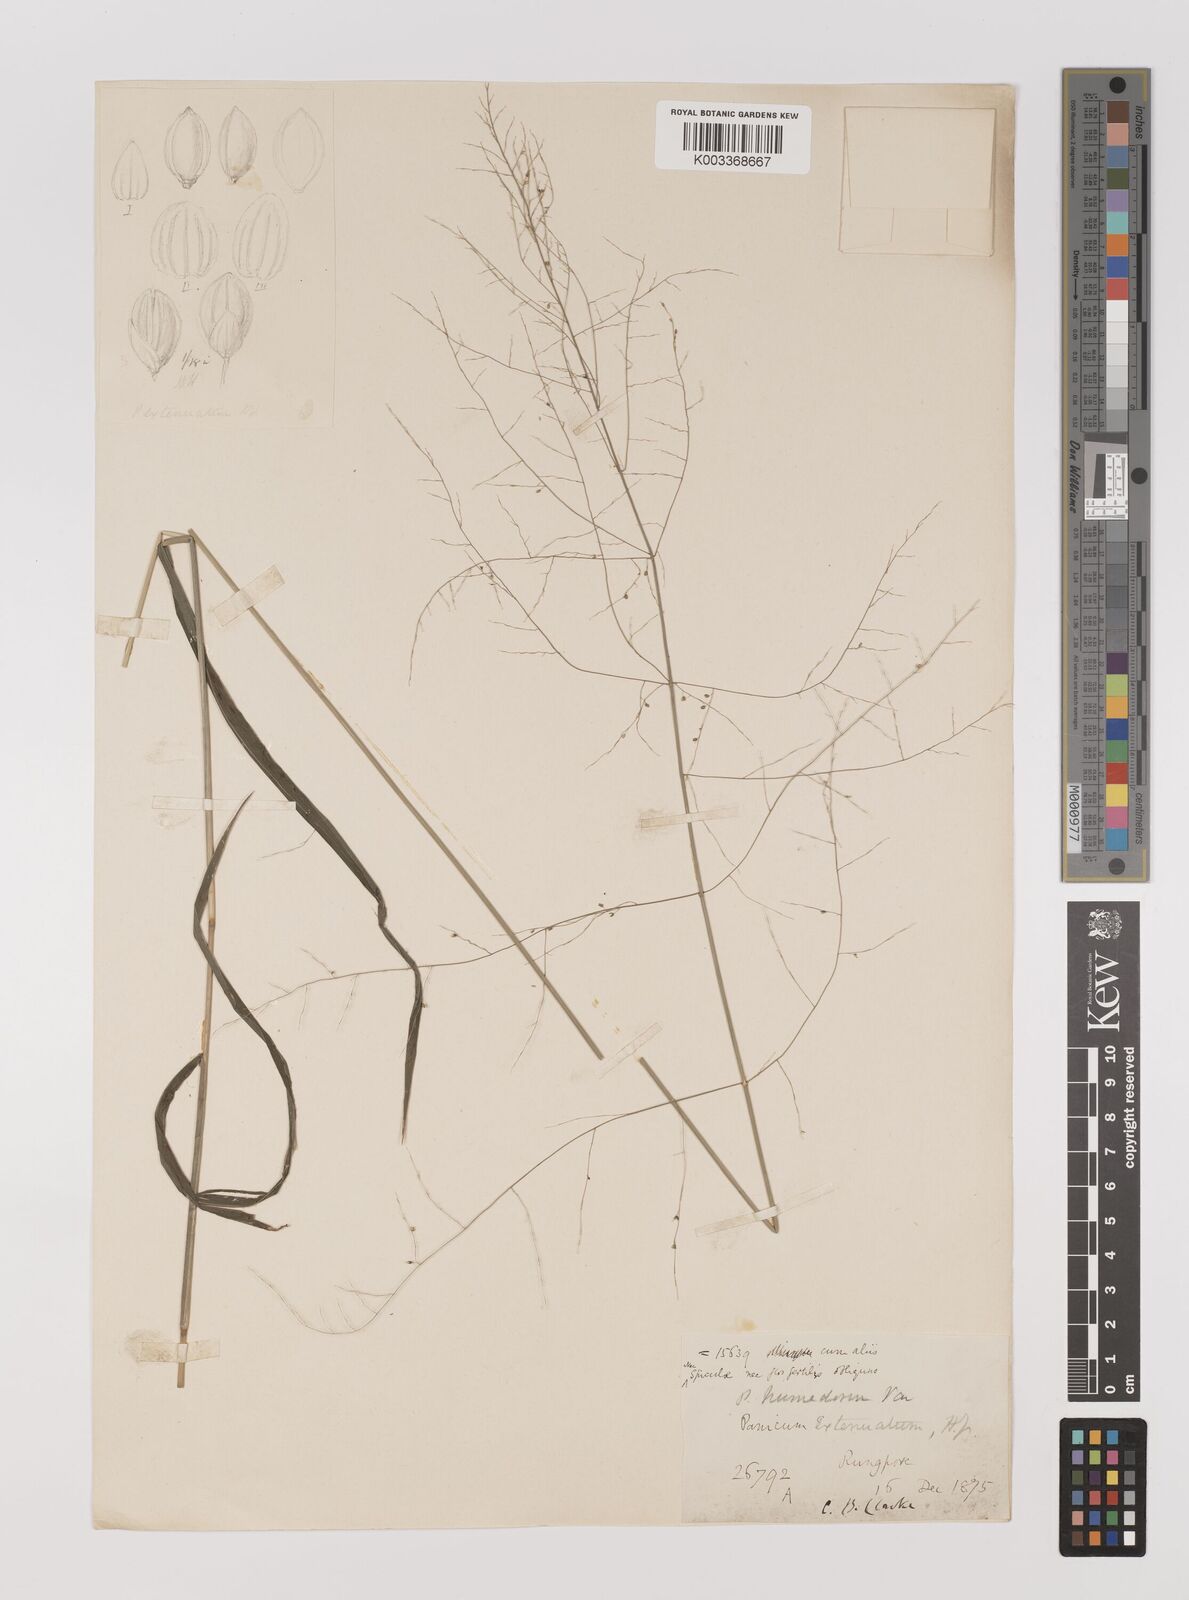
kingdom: Plantae
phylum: Tracheophyta
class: Liliopsida
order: Poales
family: Poaceae
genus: Panicum
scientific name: Panicum humidorum
